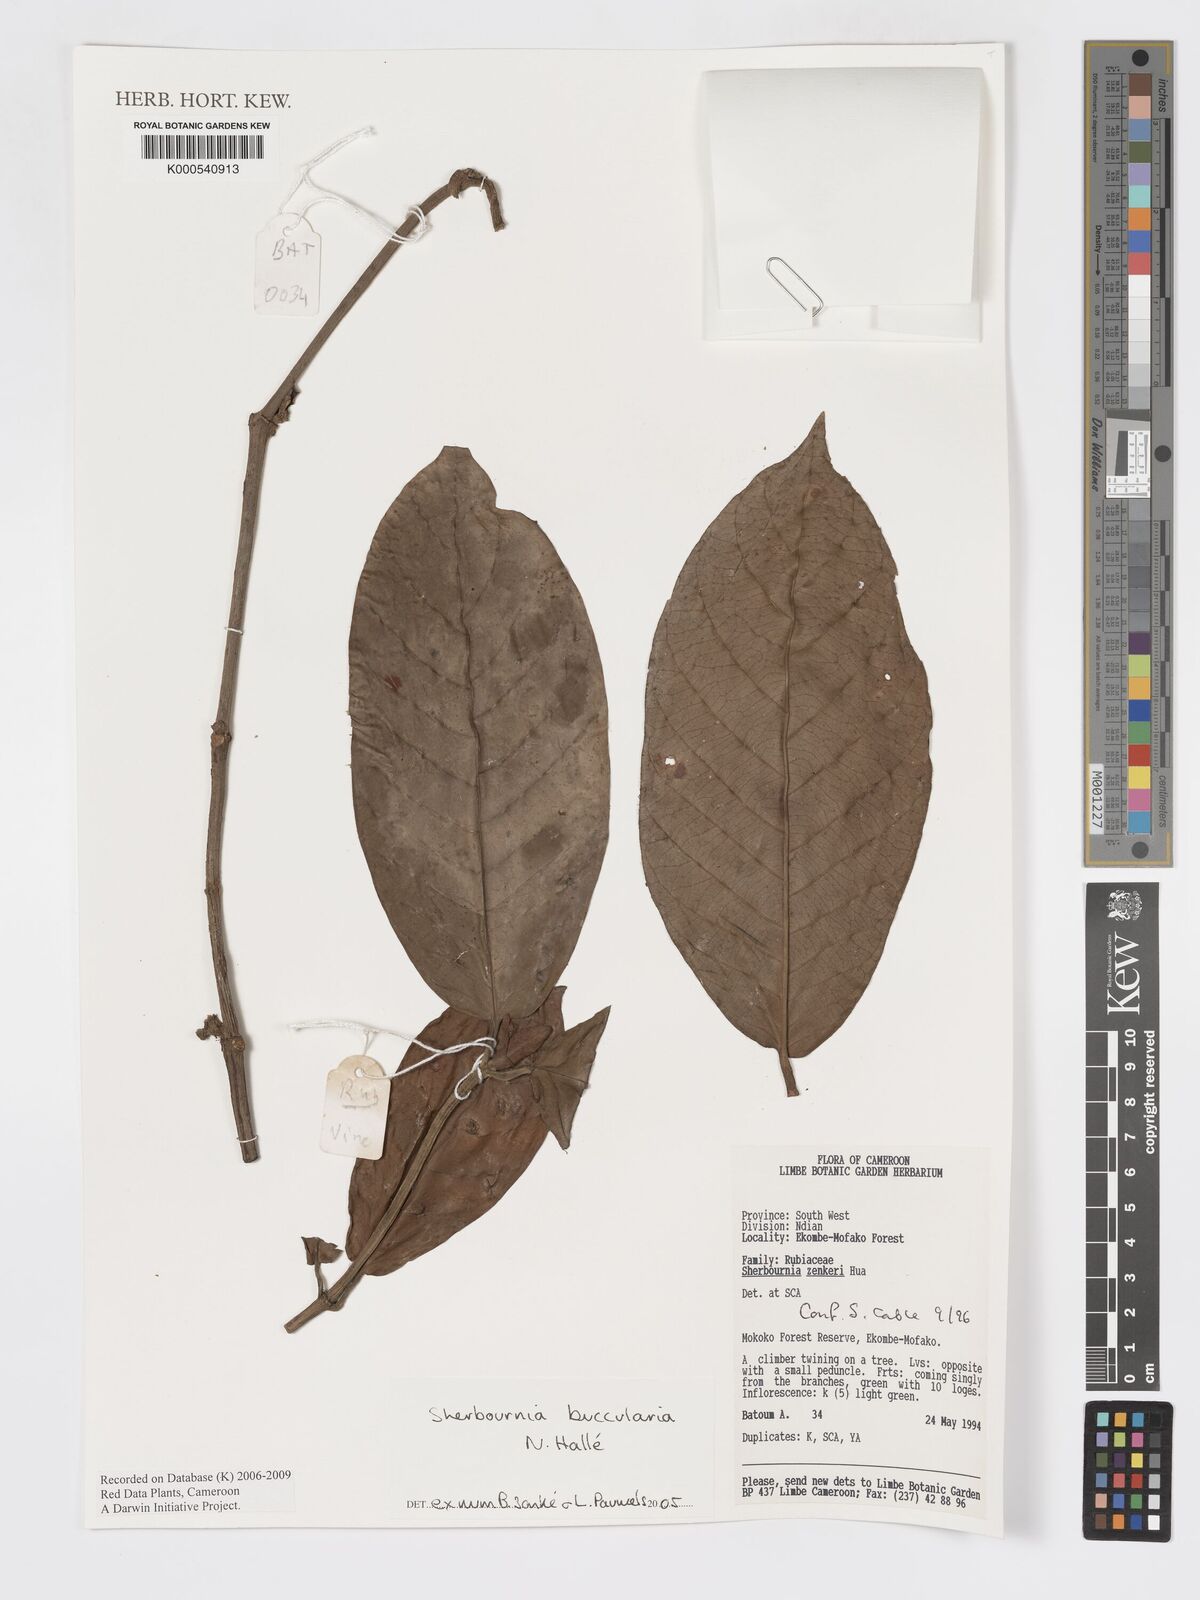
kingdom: Plantae
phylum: Tracheophyta
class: Magnoliopsida
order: Gentianales
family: Rubiaceae
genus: Sherbournia
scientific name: Sherbournia buccularia
